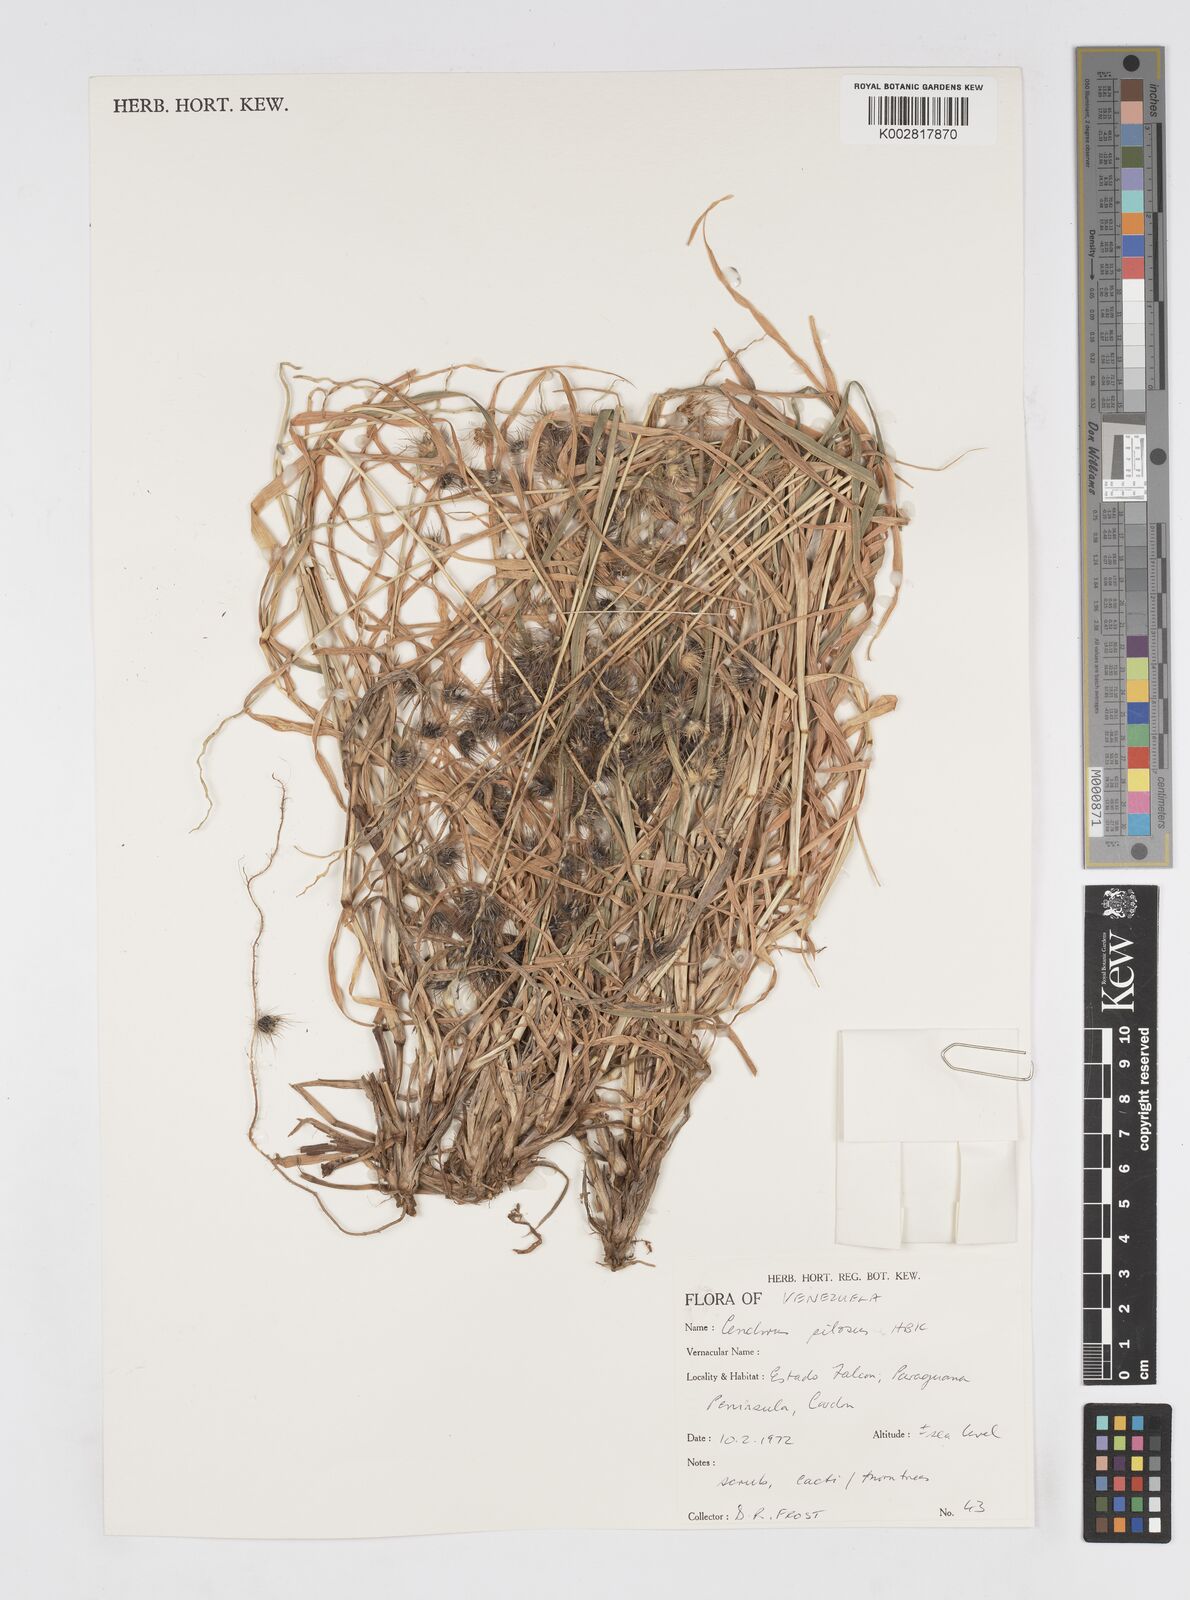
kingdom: Plantae
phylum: Tracheophyta
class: Liliopsida
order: Poales
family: Poaceae
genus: Cenchrus
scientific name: Cenchrus pilosus
